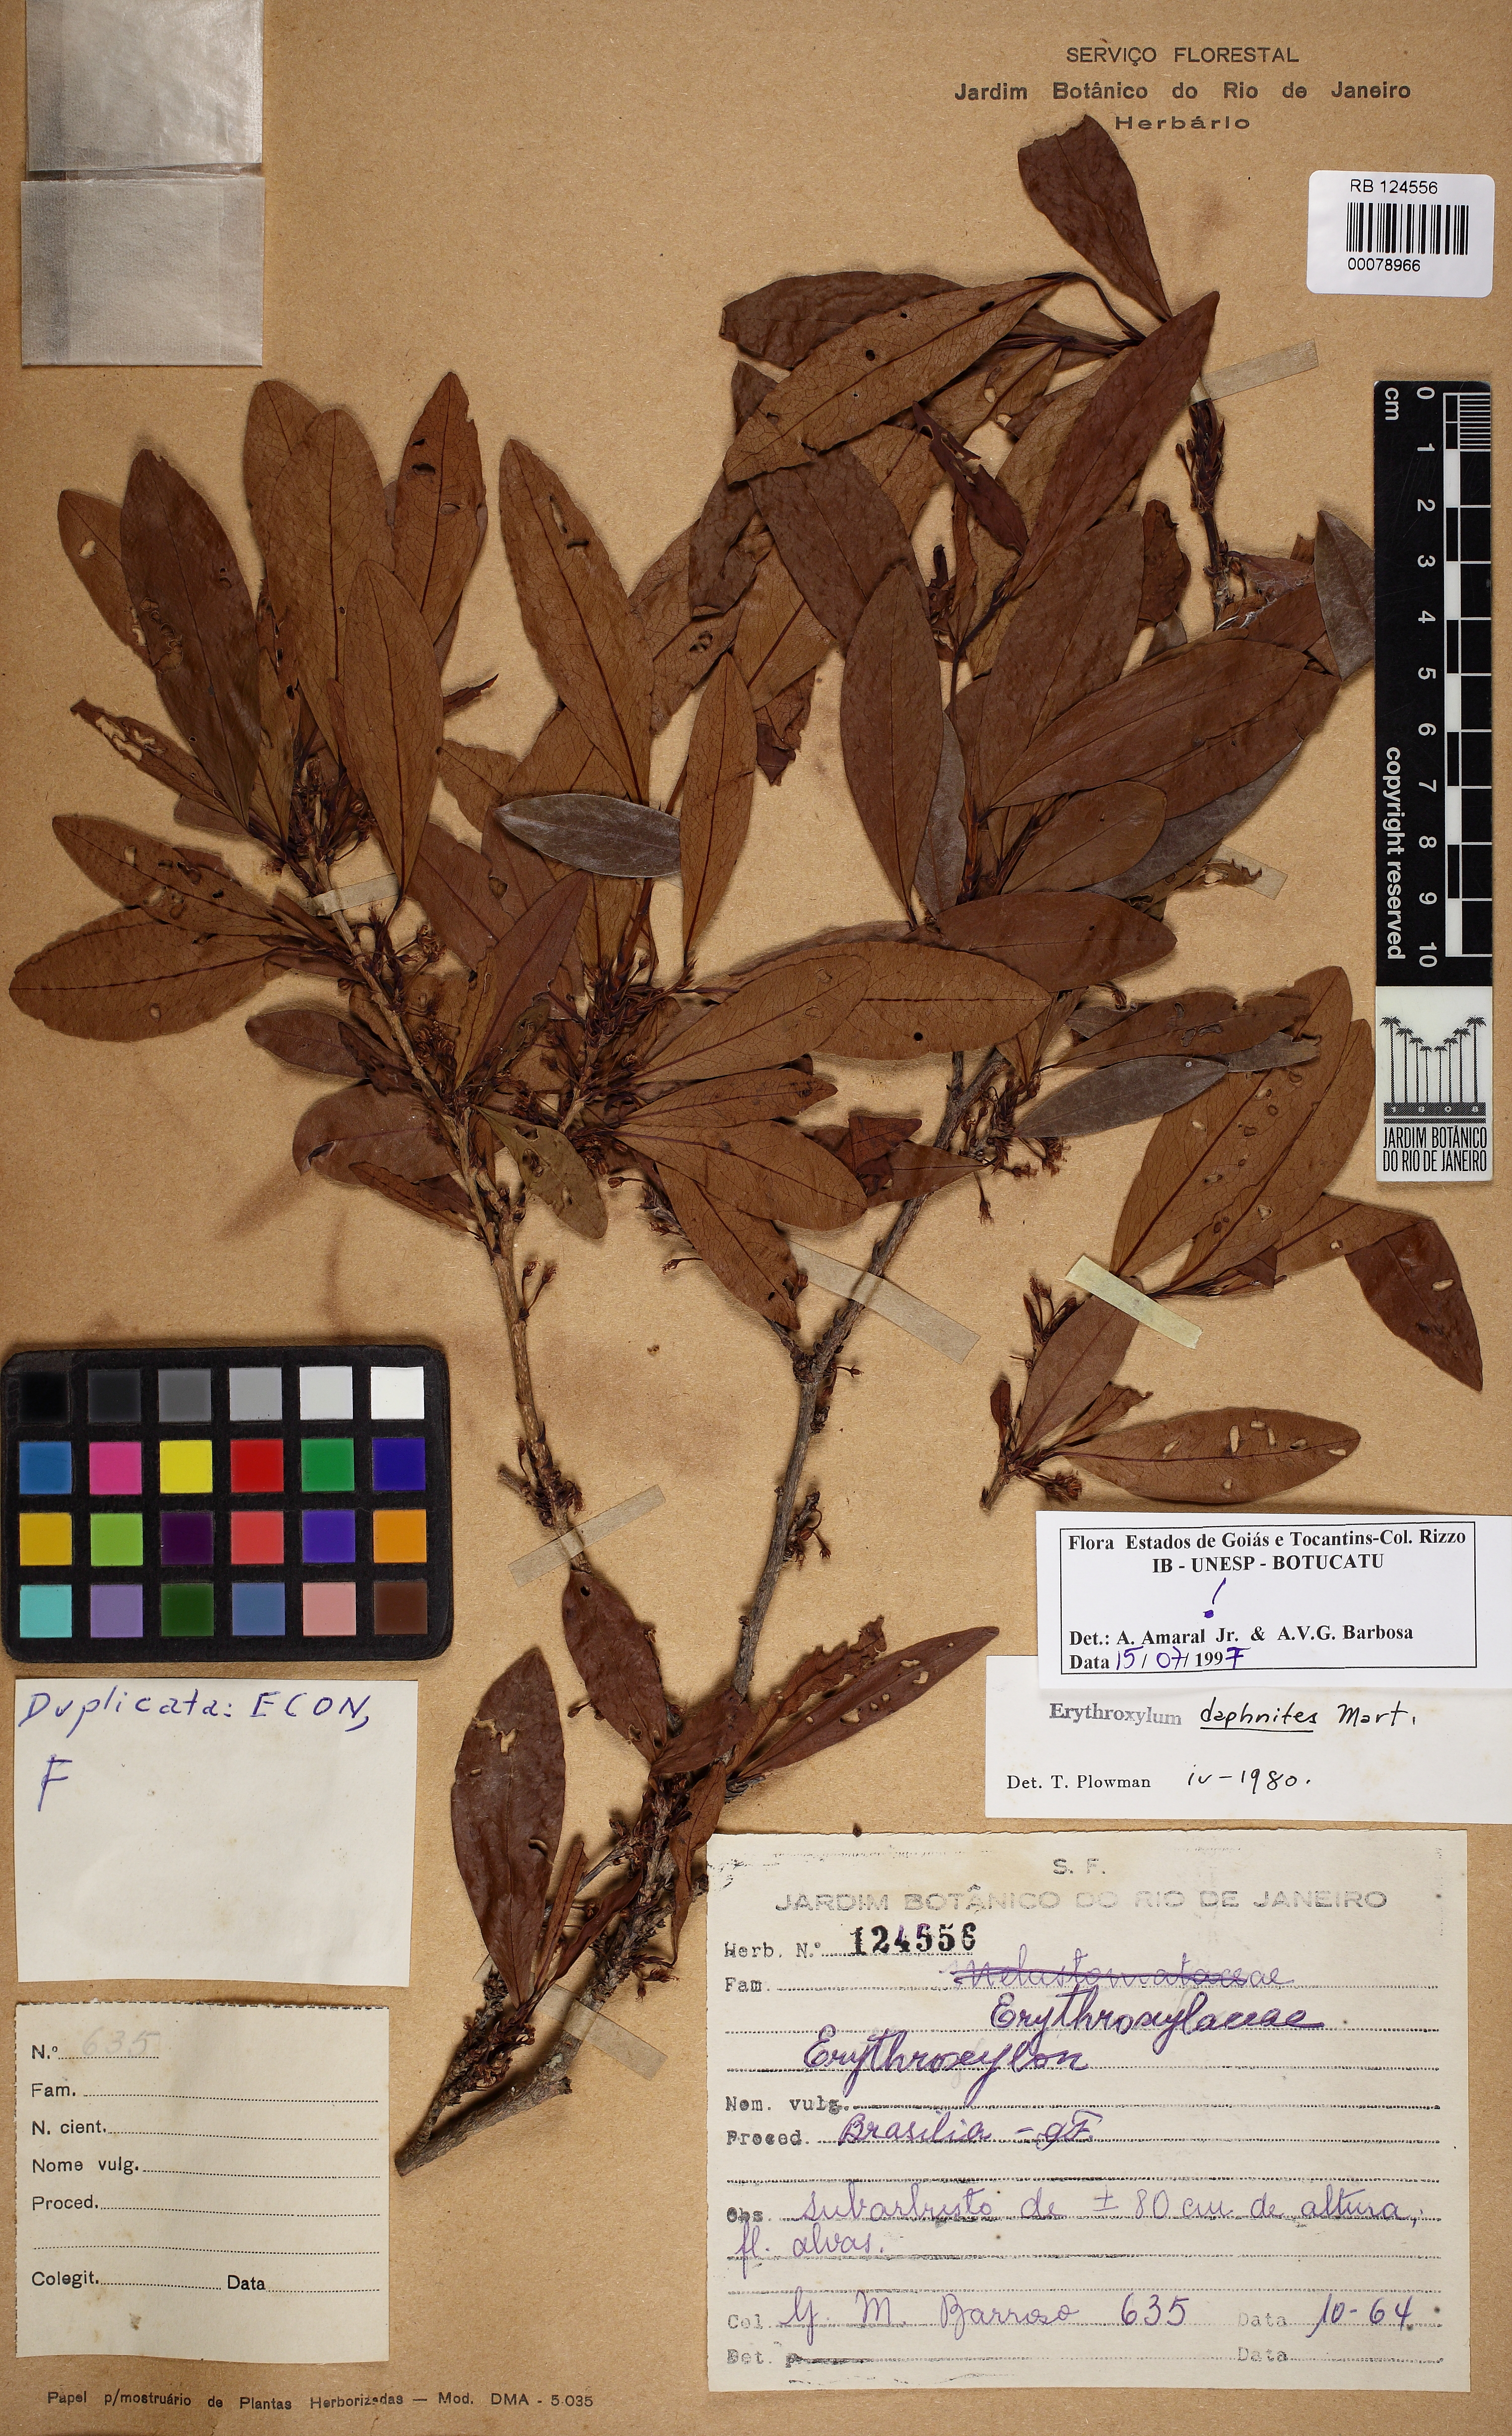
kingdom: Plantae
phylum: Tracheophyta
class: Magnoliopsida
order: Malpighiales
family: Erythroxylaceae
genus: Erythroxylum
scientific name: Erythroxylum daphnites
